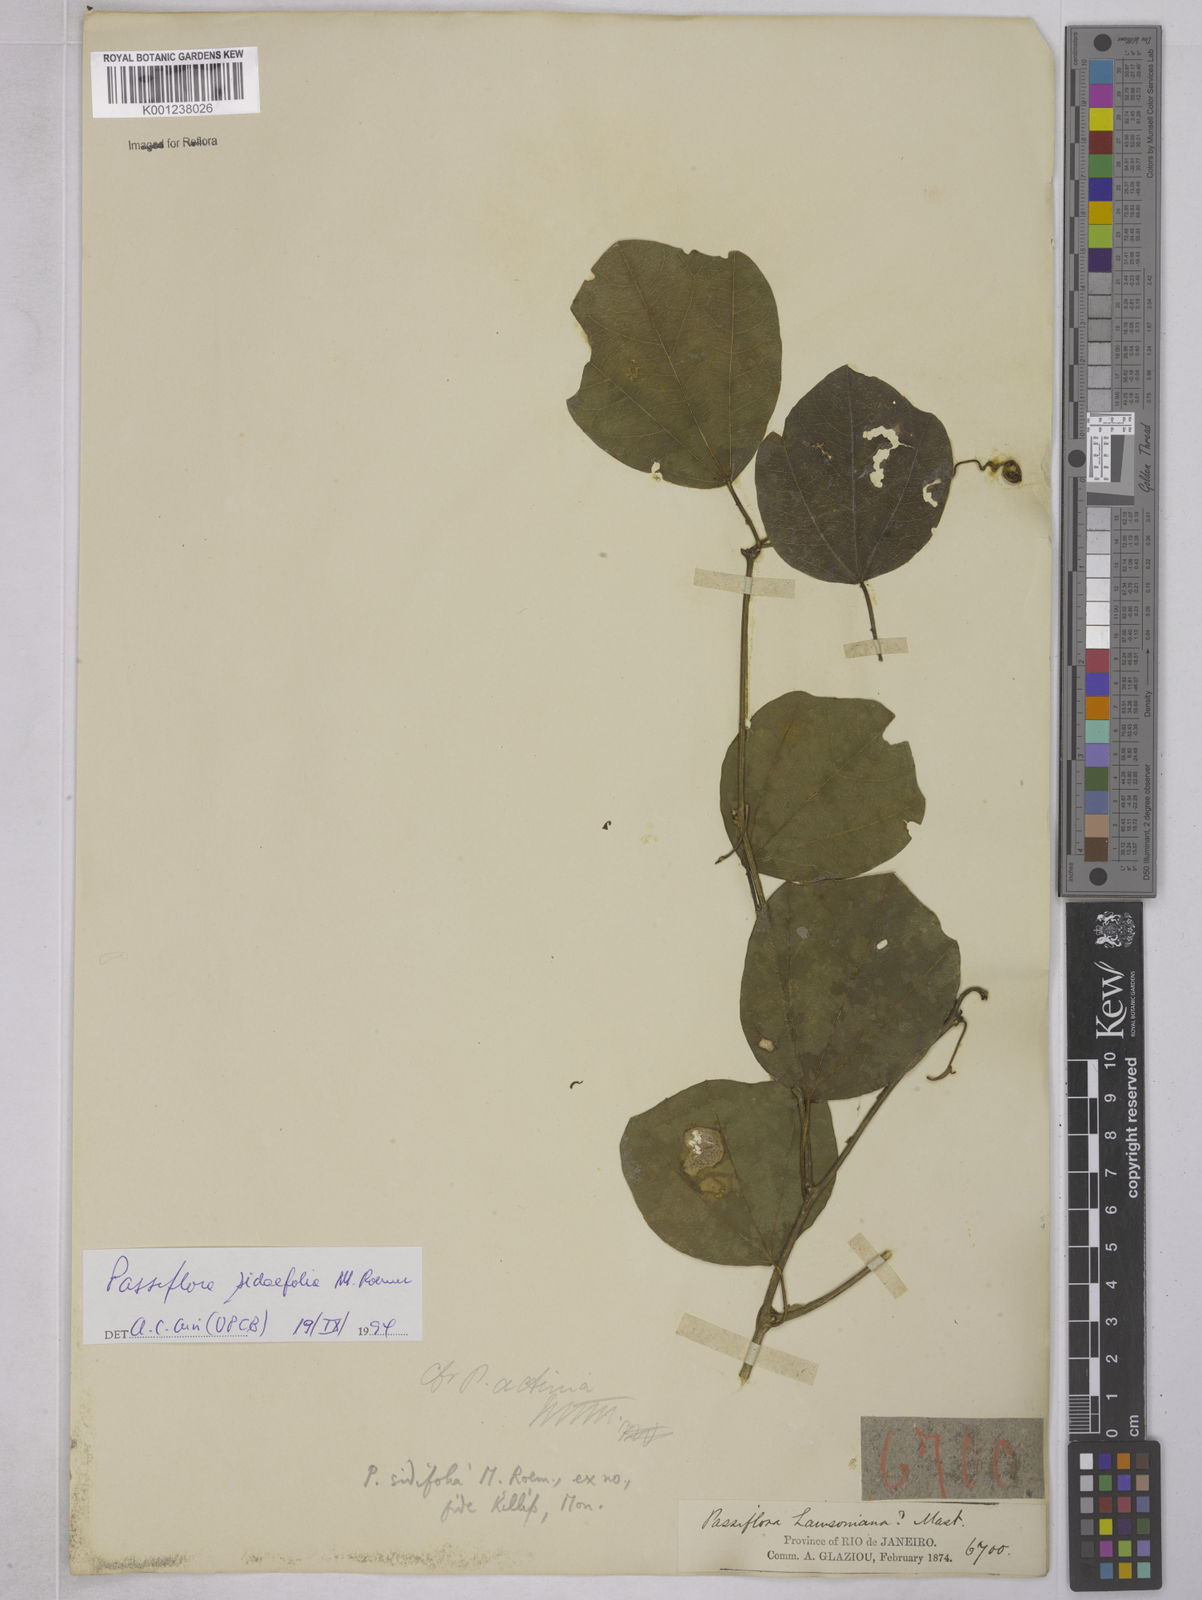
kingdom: Plantae
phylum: Tracheophyta
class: Magnoliopsida
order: Malpighiales
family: Passifloraceae
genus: Passiflora
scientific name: Passiflora tetraden
